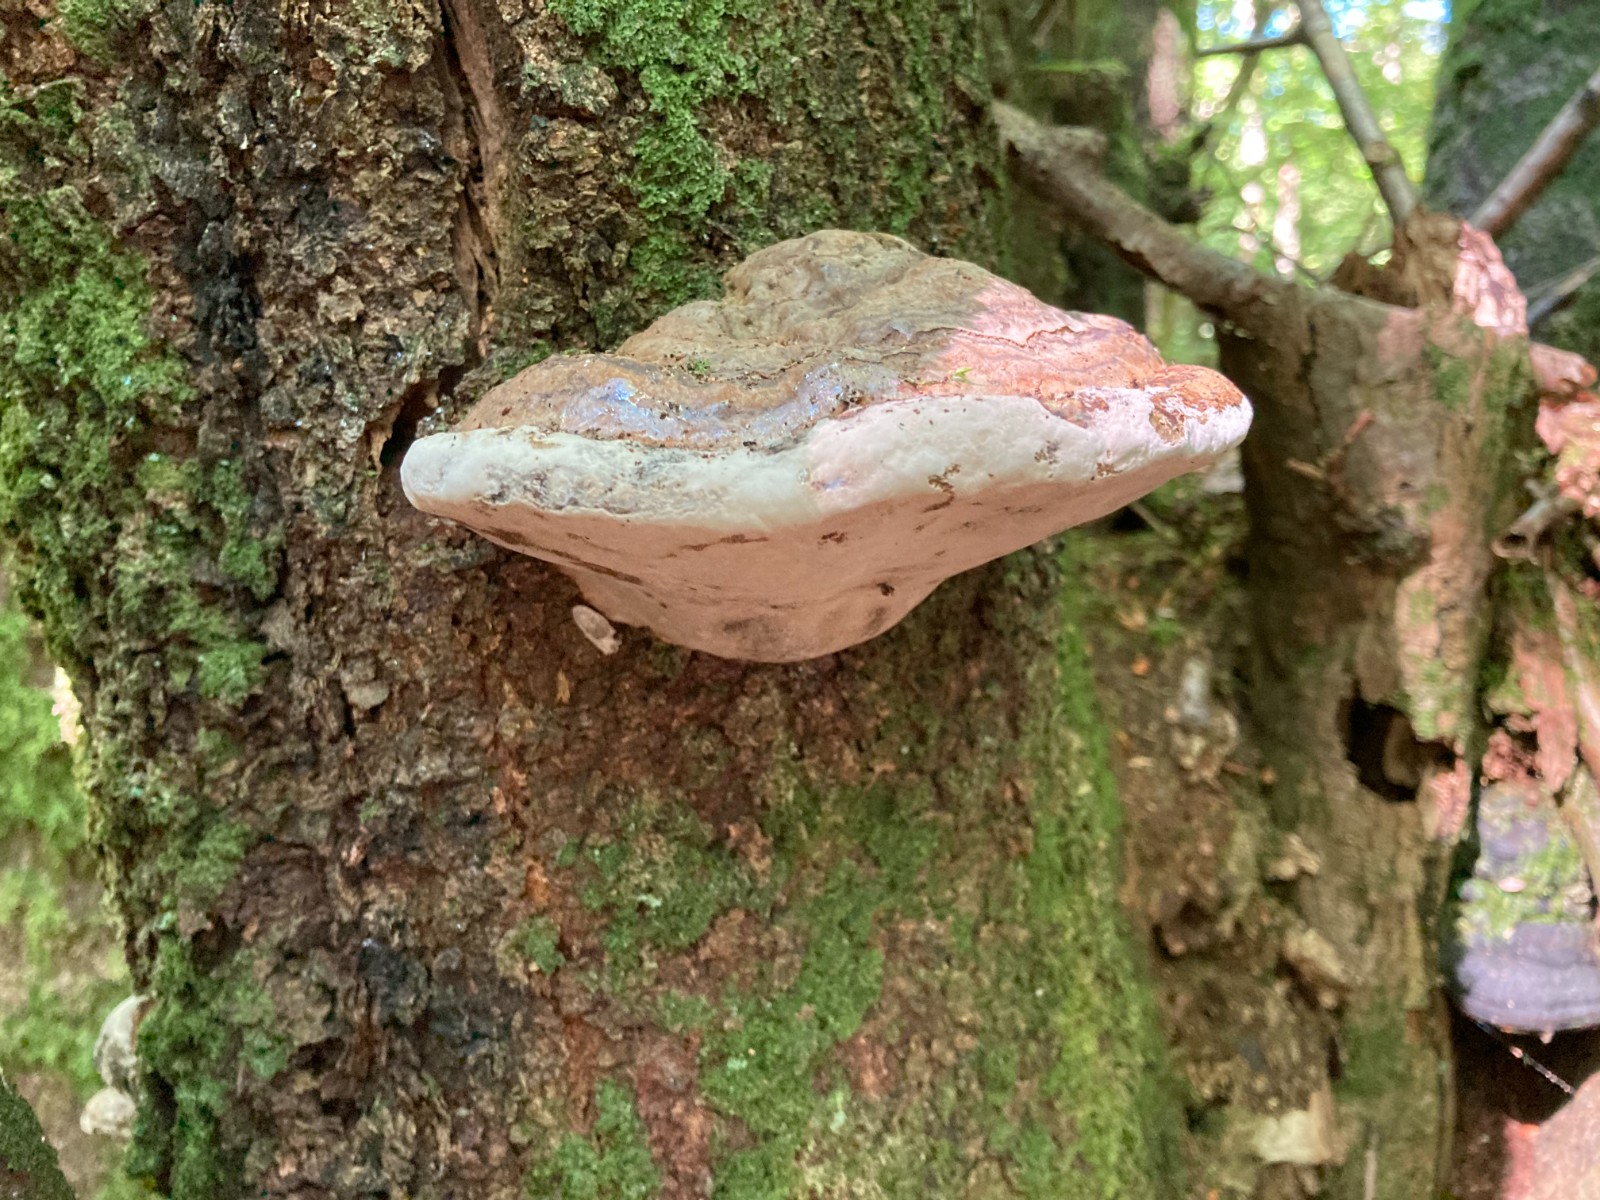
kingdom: Fungi
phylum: Basidiomycota
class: Agaricomycetes
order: Polyporales
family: Polyporaceae
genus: Fomes
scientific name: Fomes fomentarius
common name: tøndersvamp
